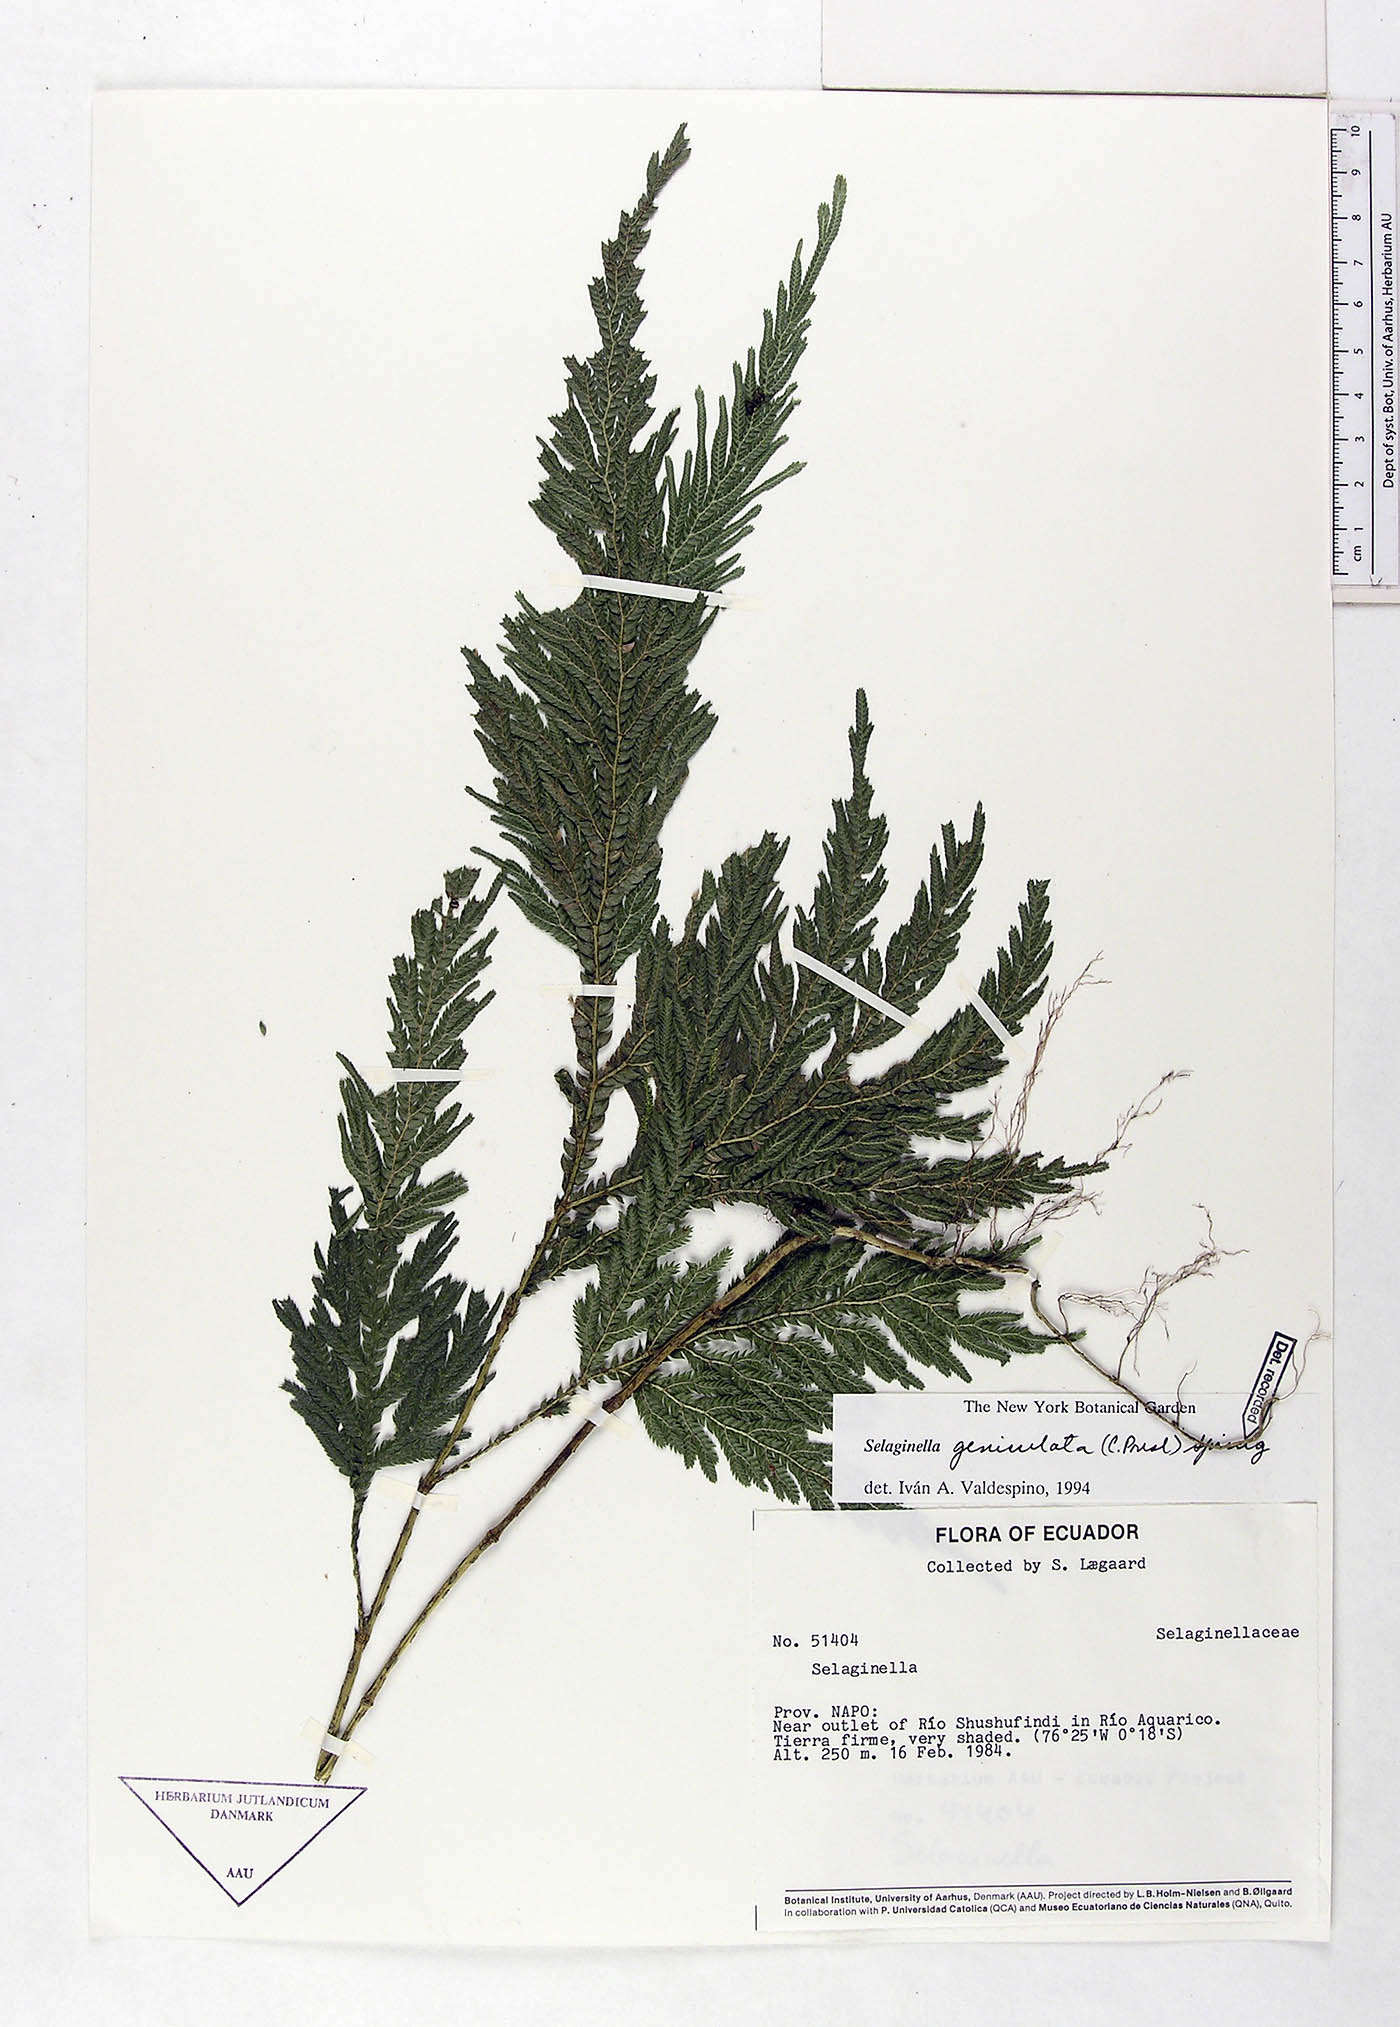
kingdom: Plantae
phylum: Tracheophyta
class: Lycopodiopsida
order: Selaginellales
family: Selaginellaceae
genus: Selaginella
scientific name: Selaginella geniculata
